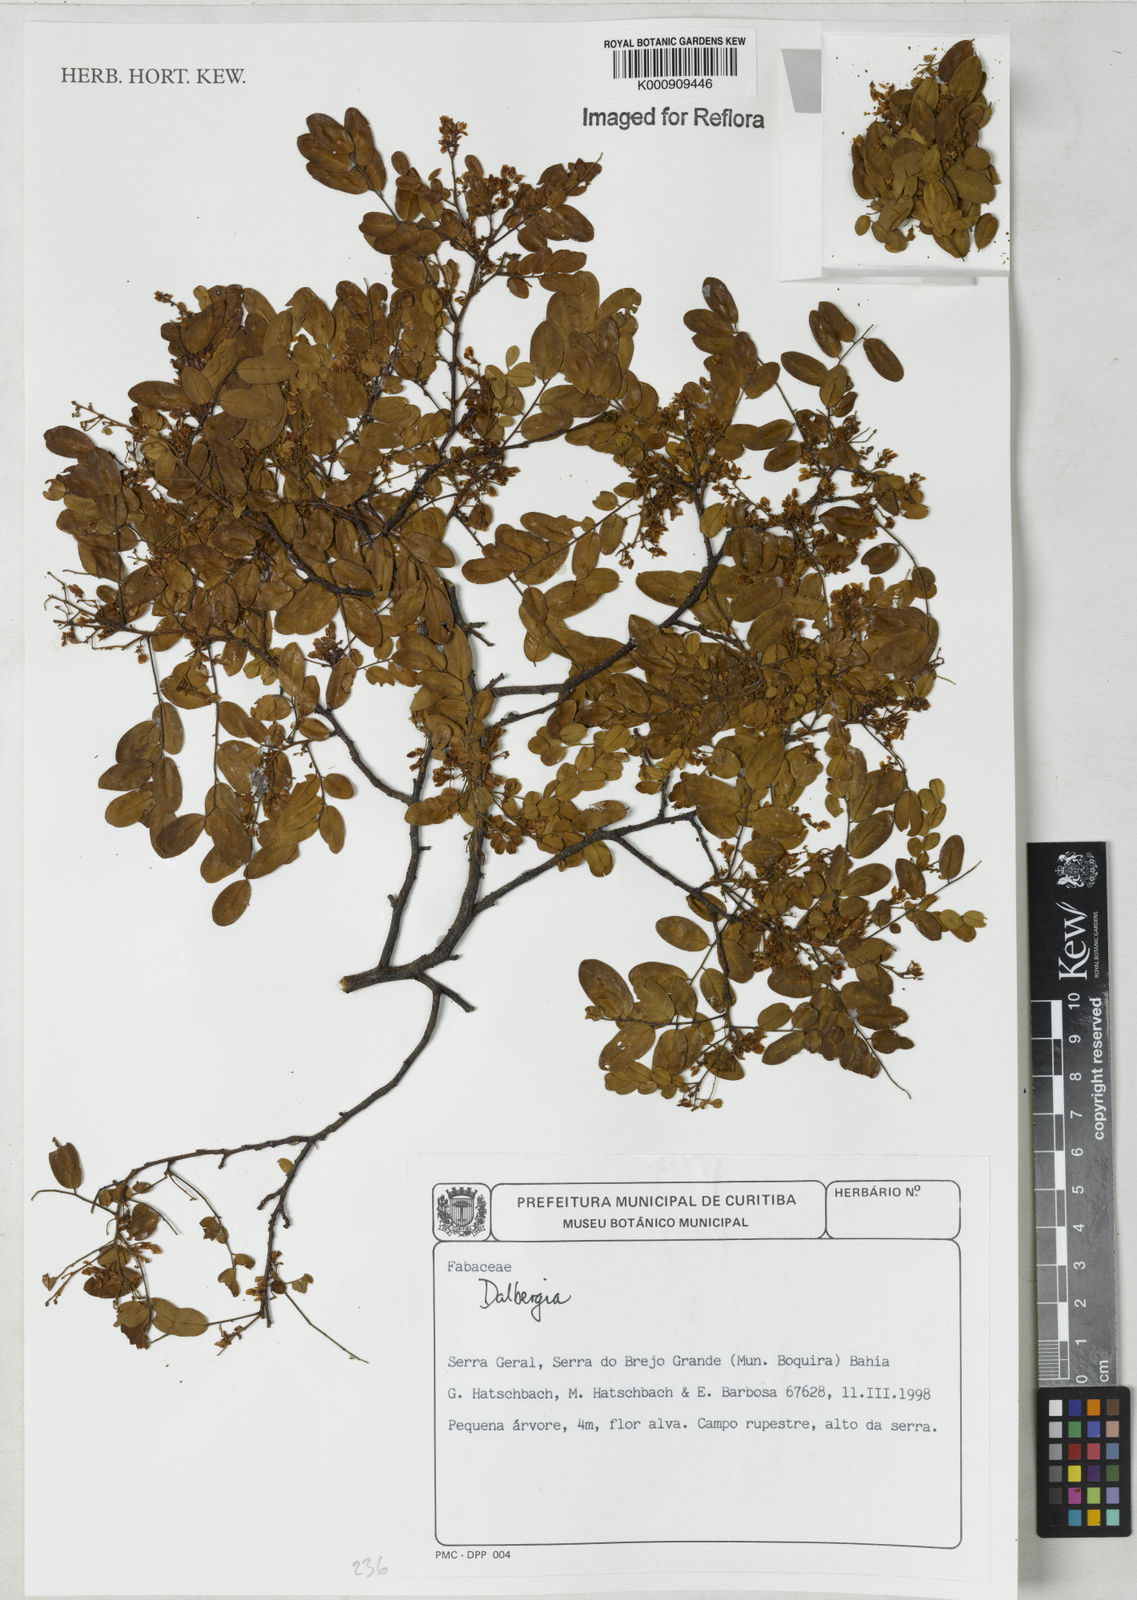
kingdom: Plantae
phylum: Tracheophyta
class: Magnoliopsida
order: Fabales
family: Fabaceae
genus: Dalbergia
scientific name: Dalbergia
